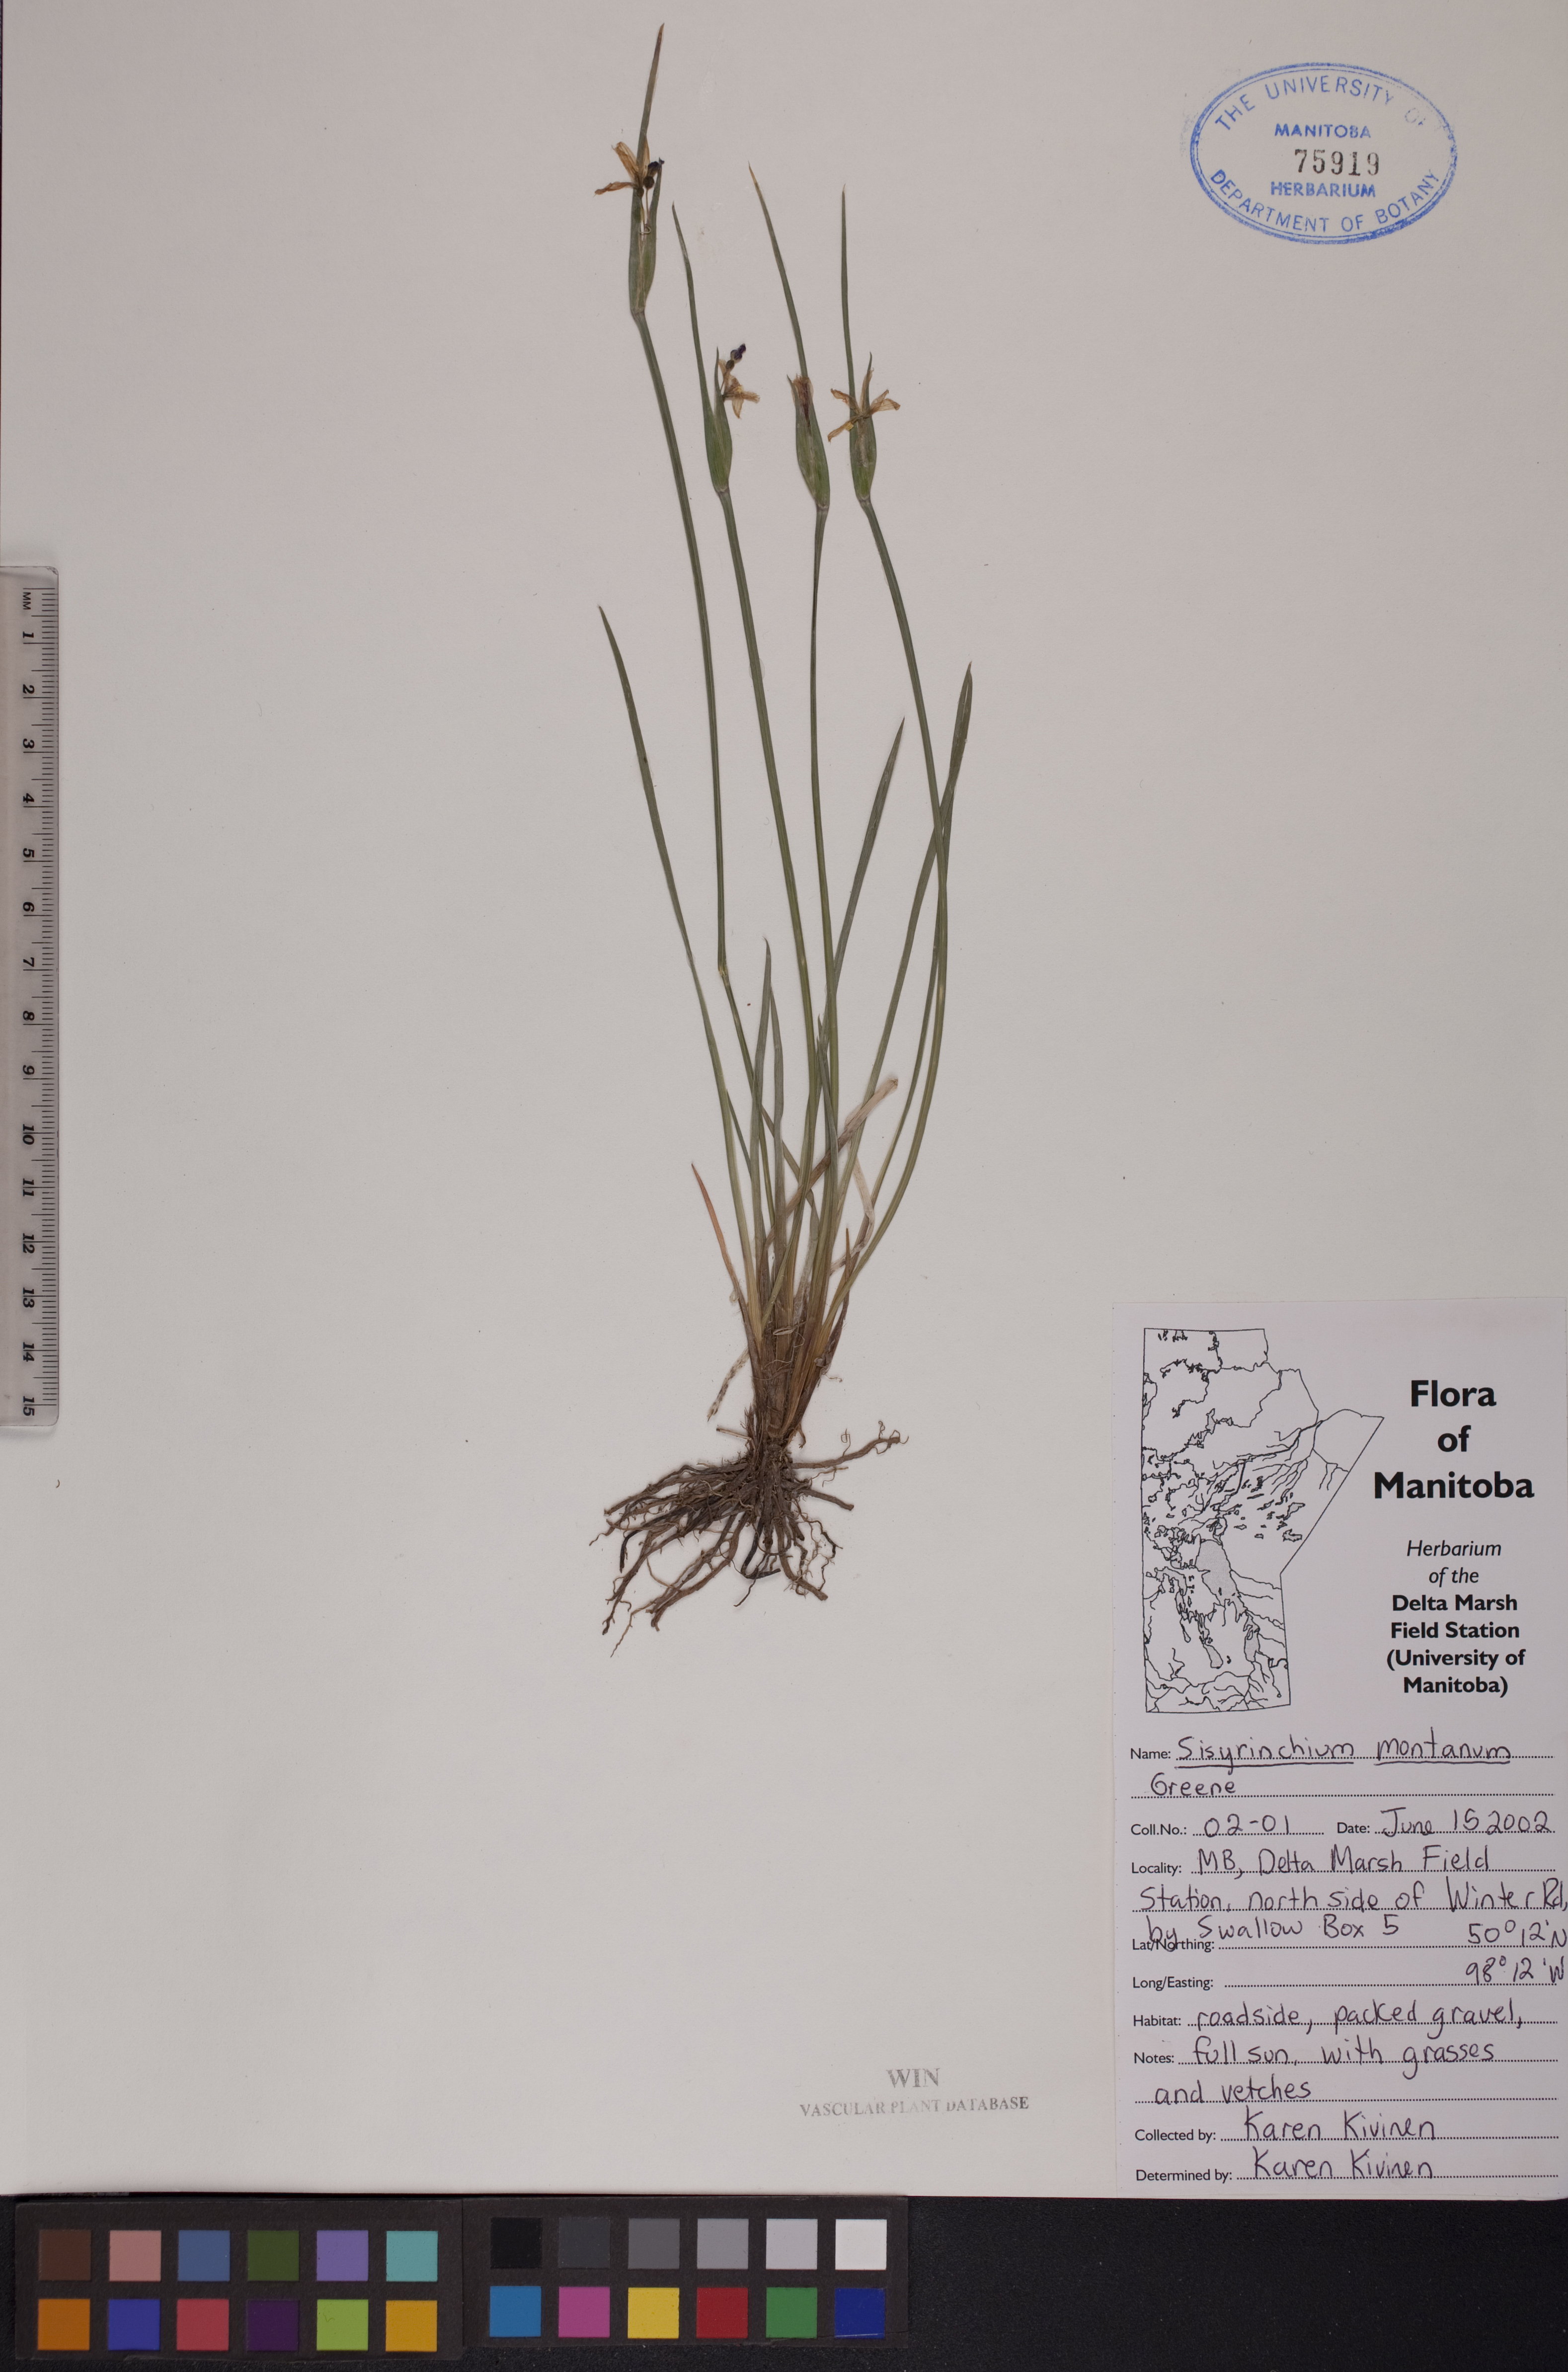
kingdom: Plantae
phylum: Tracheophyta
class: Liliopsida
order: Asparagales
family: Iridaceae
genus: Sisyrinchium
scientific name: Sisyrinchium montanum
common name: American blue-eyed-grass
